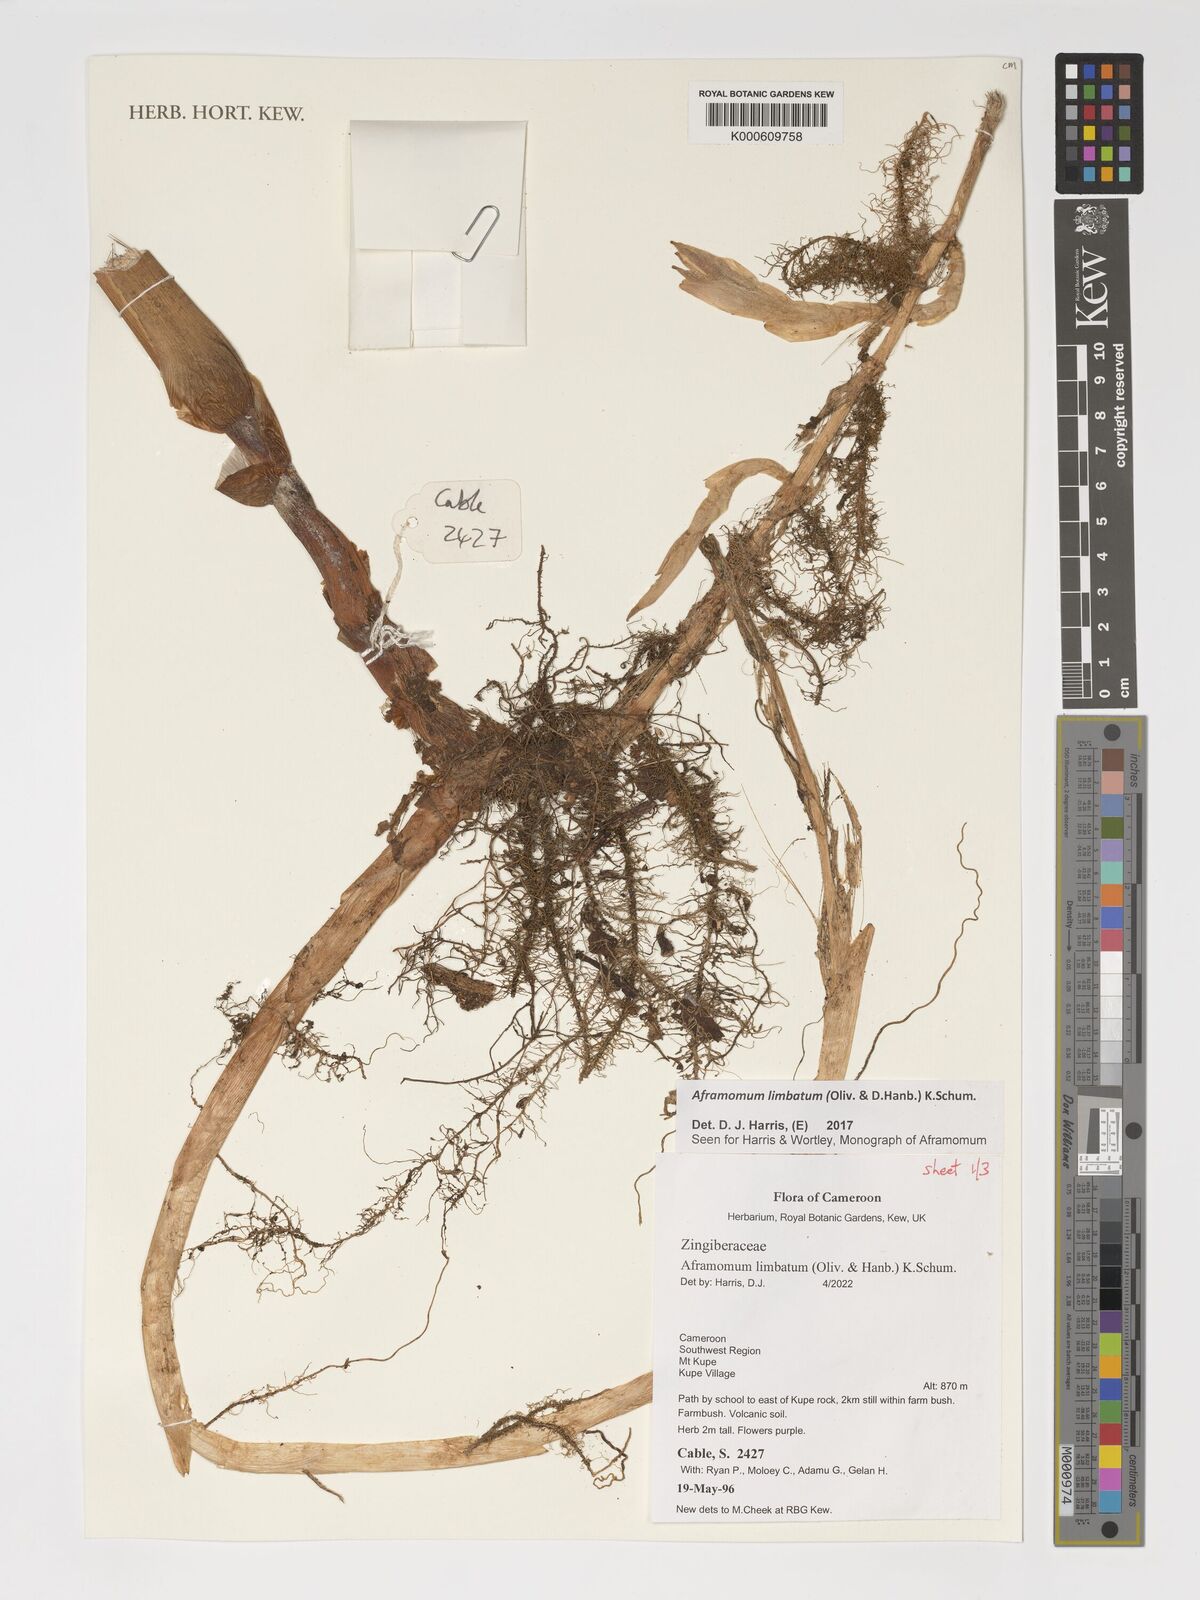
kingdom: Plantae
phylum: Tracheophyta
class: Liliopsida
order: Zingiberales
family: Zingiberaceae
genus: Aframomum
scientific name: Aframomum limbatum
